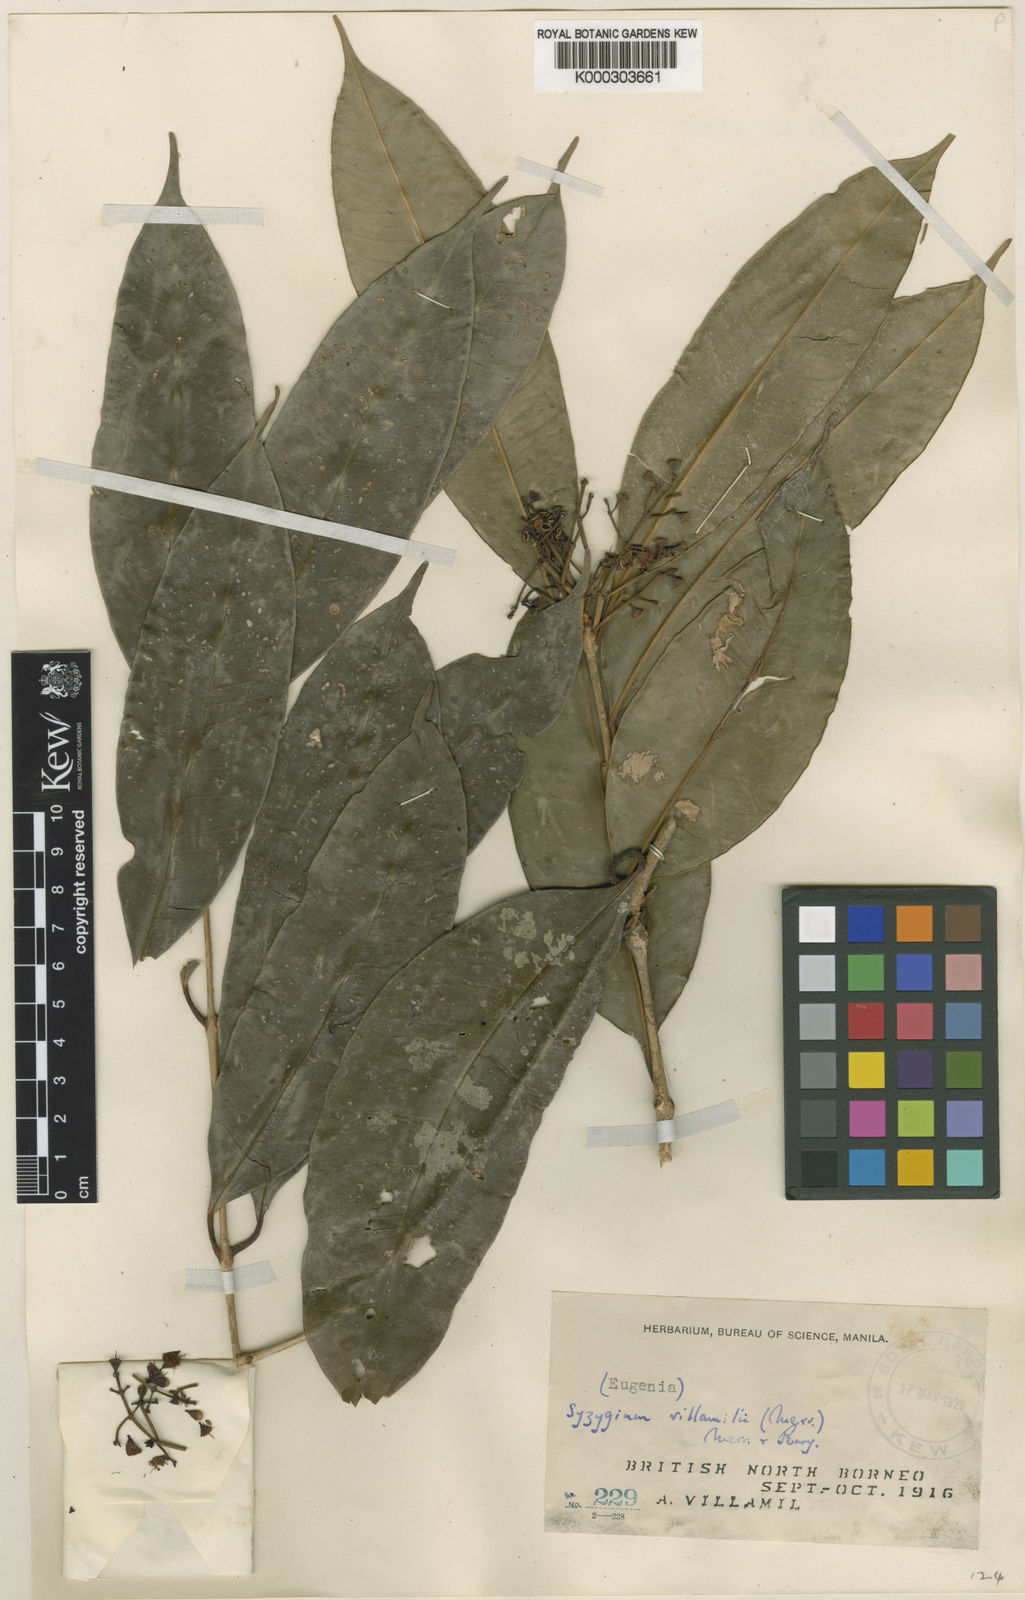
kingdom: Plantae
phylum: Tracheophyta
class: Magnoliopsida
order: Myrtales
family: Myrtaceae
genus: Syzygium
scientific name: Syzygium villamilii
